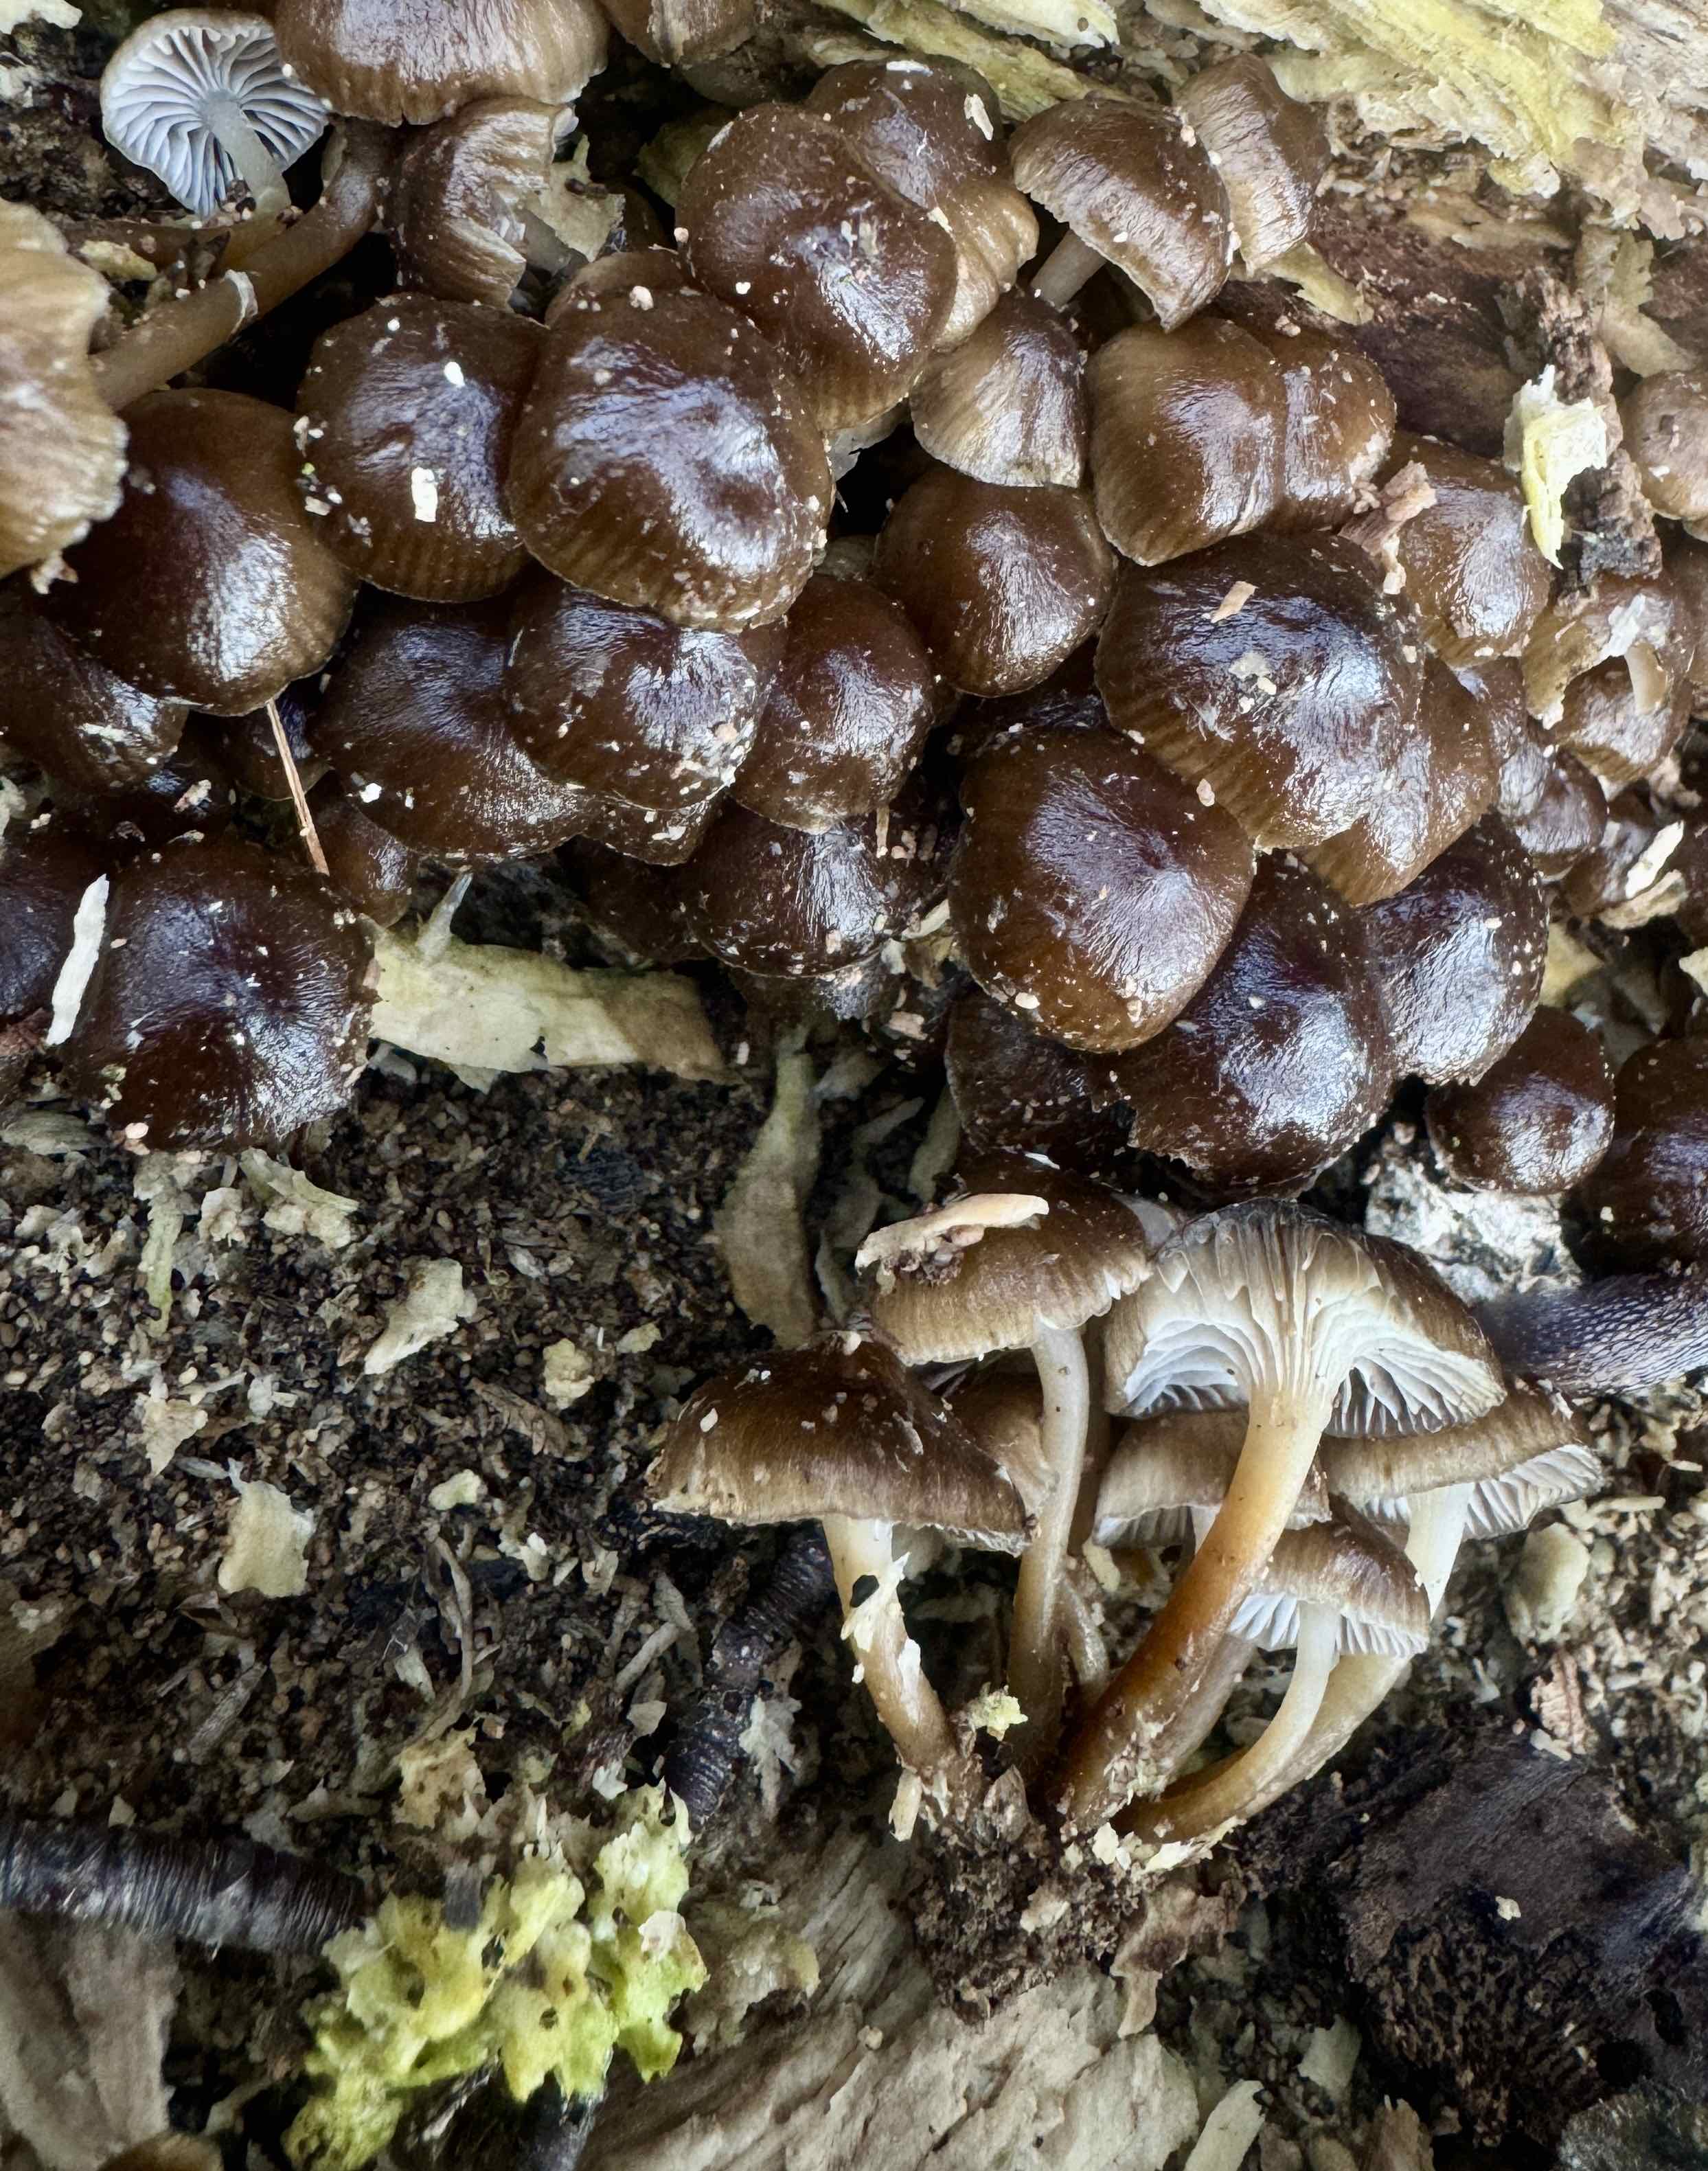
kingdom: Fungi
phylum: Basidiomycota
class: Agaricomycetes
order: Agaricales
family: Mycenaceae
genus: Mycena
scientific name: Mycena tintinnabulum
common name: vinter-huesvamp
